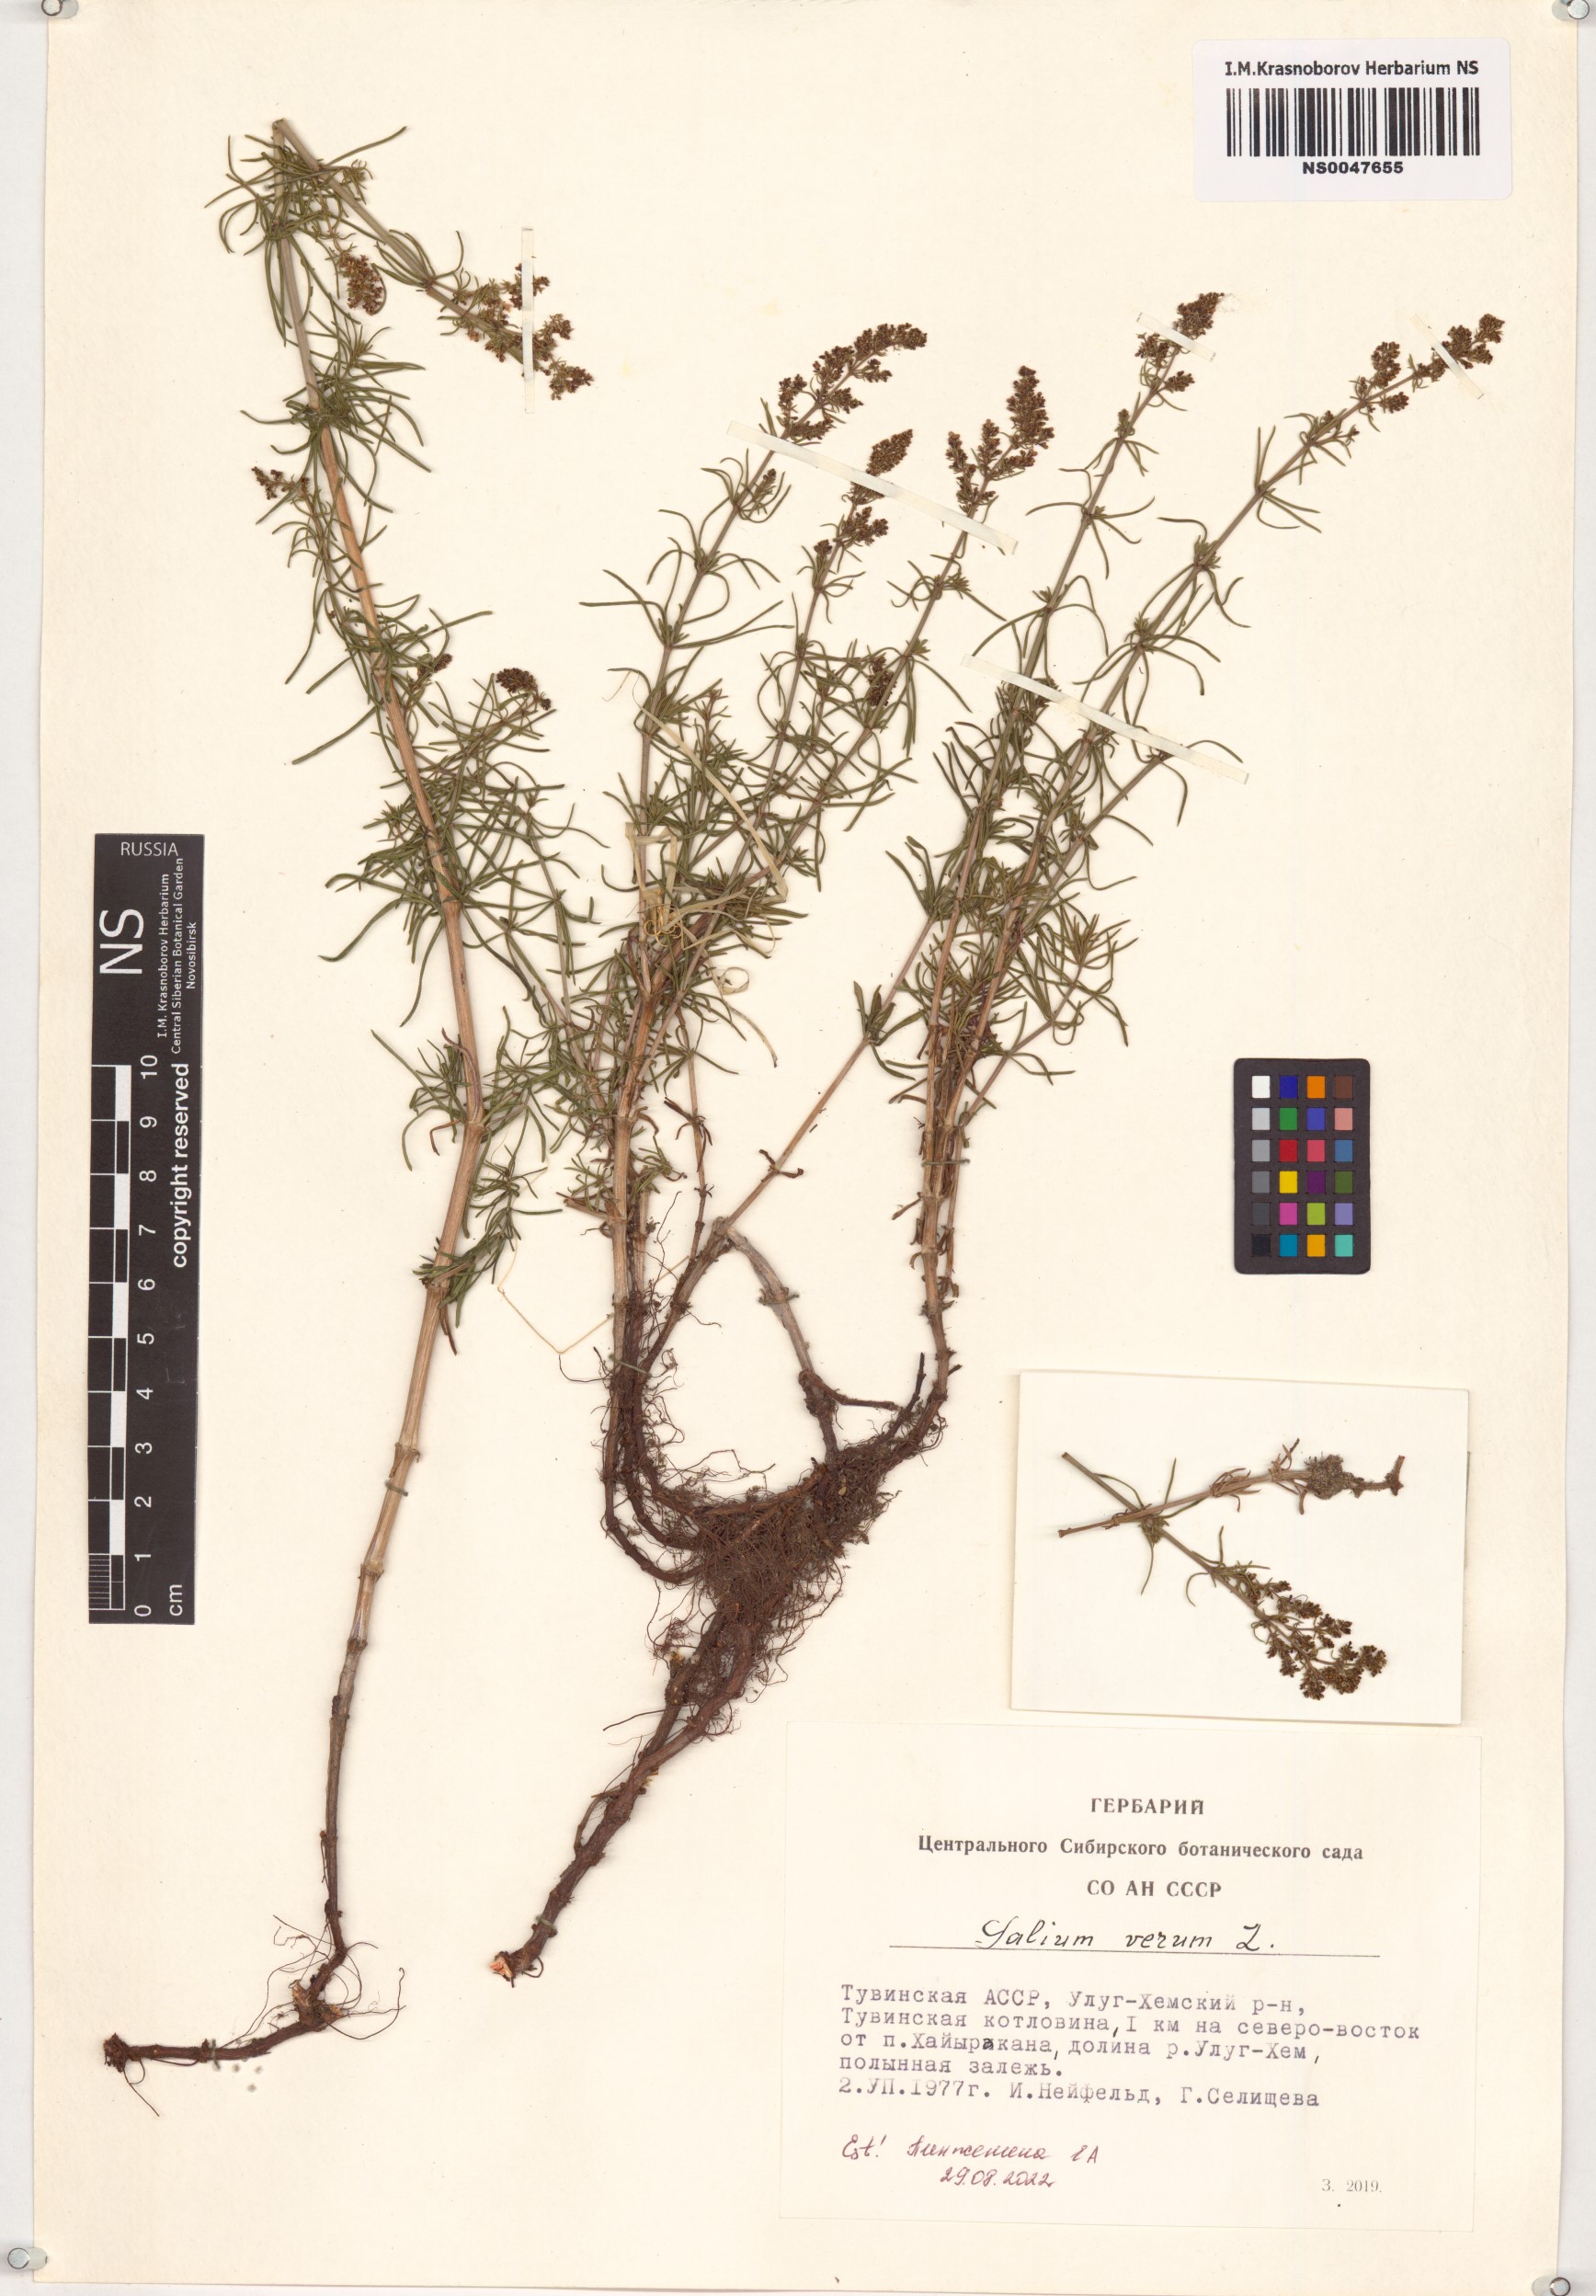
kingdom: Plantae
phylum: Tracheophyta
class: Magnoliopsida
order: Gentianales
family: Rubiaceae
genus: Galium
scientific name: Galium verum
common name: Lady's bedstraw
